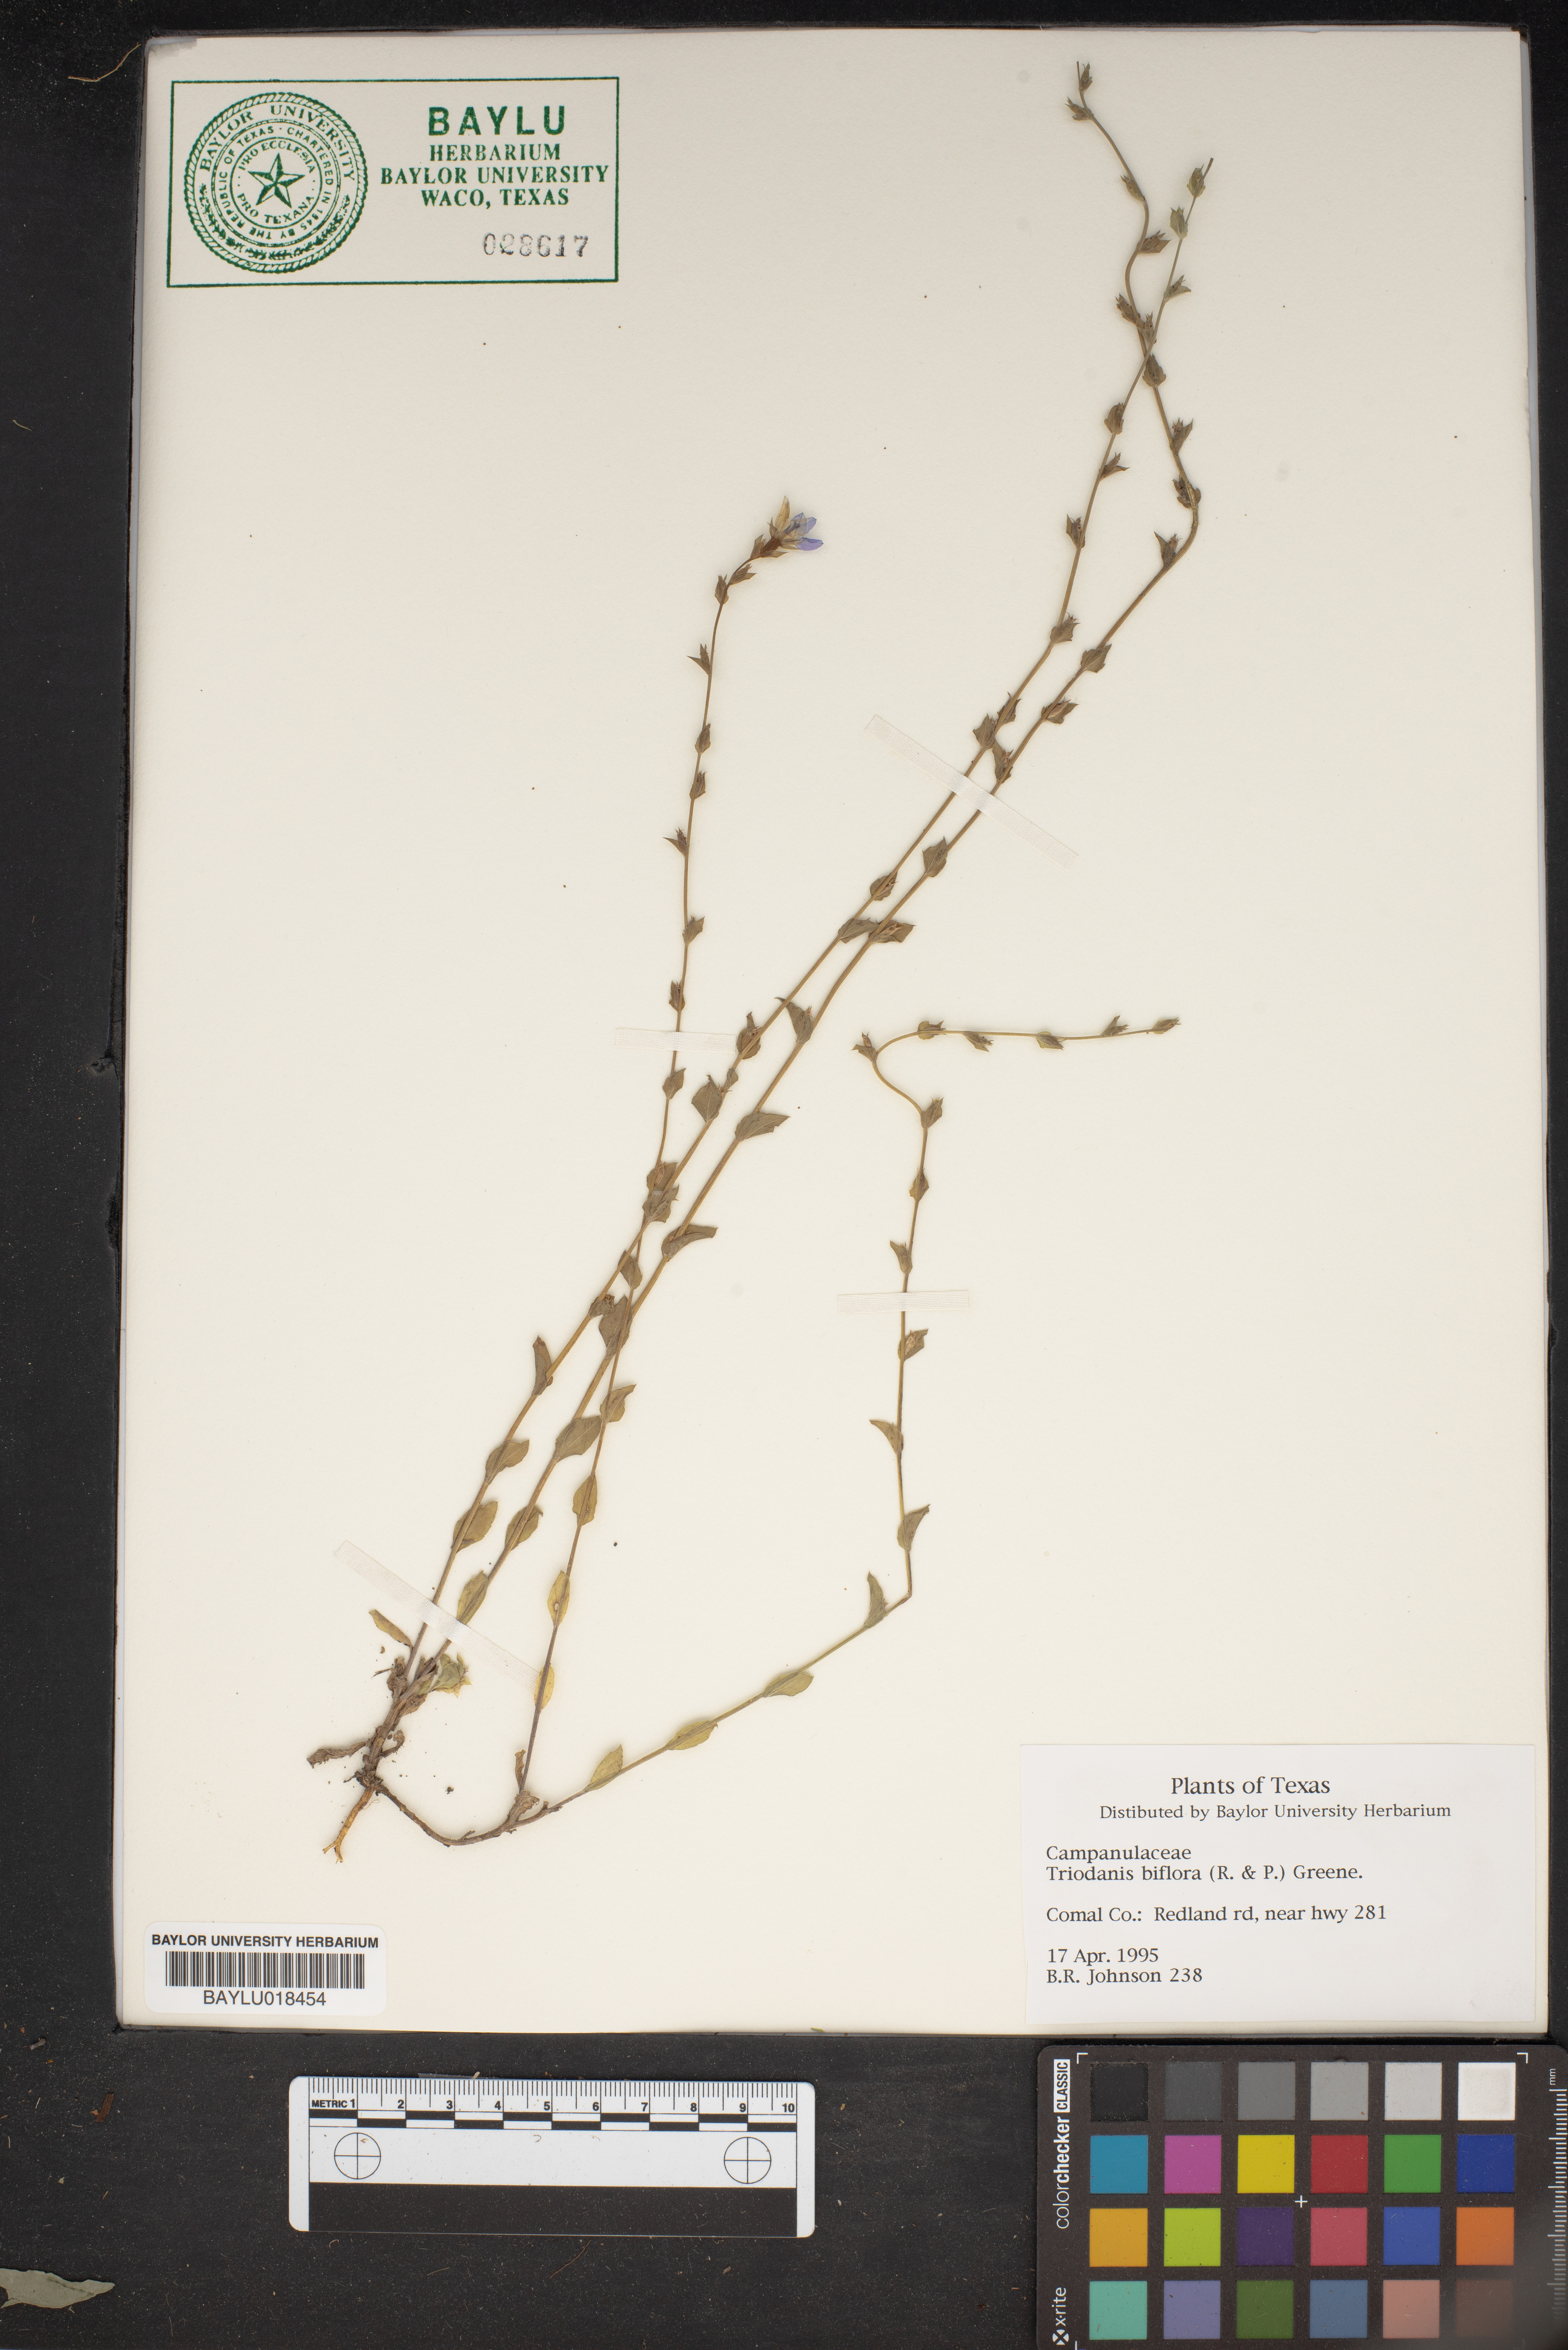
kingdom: Plantae
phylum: Tracheophyta
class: Magnoliopsida
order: Asterales
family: Campanulaceae
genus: Triodanis
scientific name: Triodanis perfoliata
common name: Clasping venus' looking-glass
